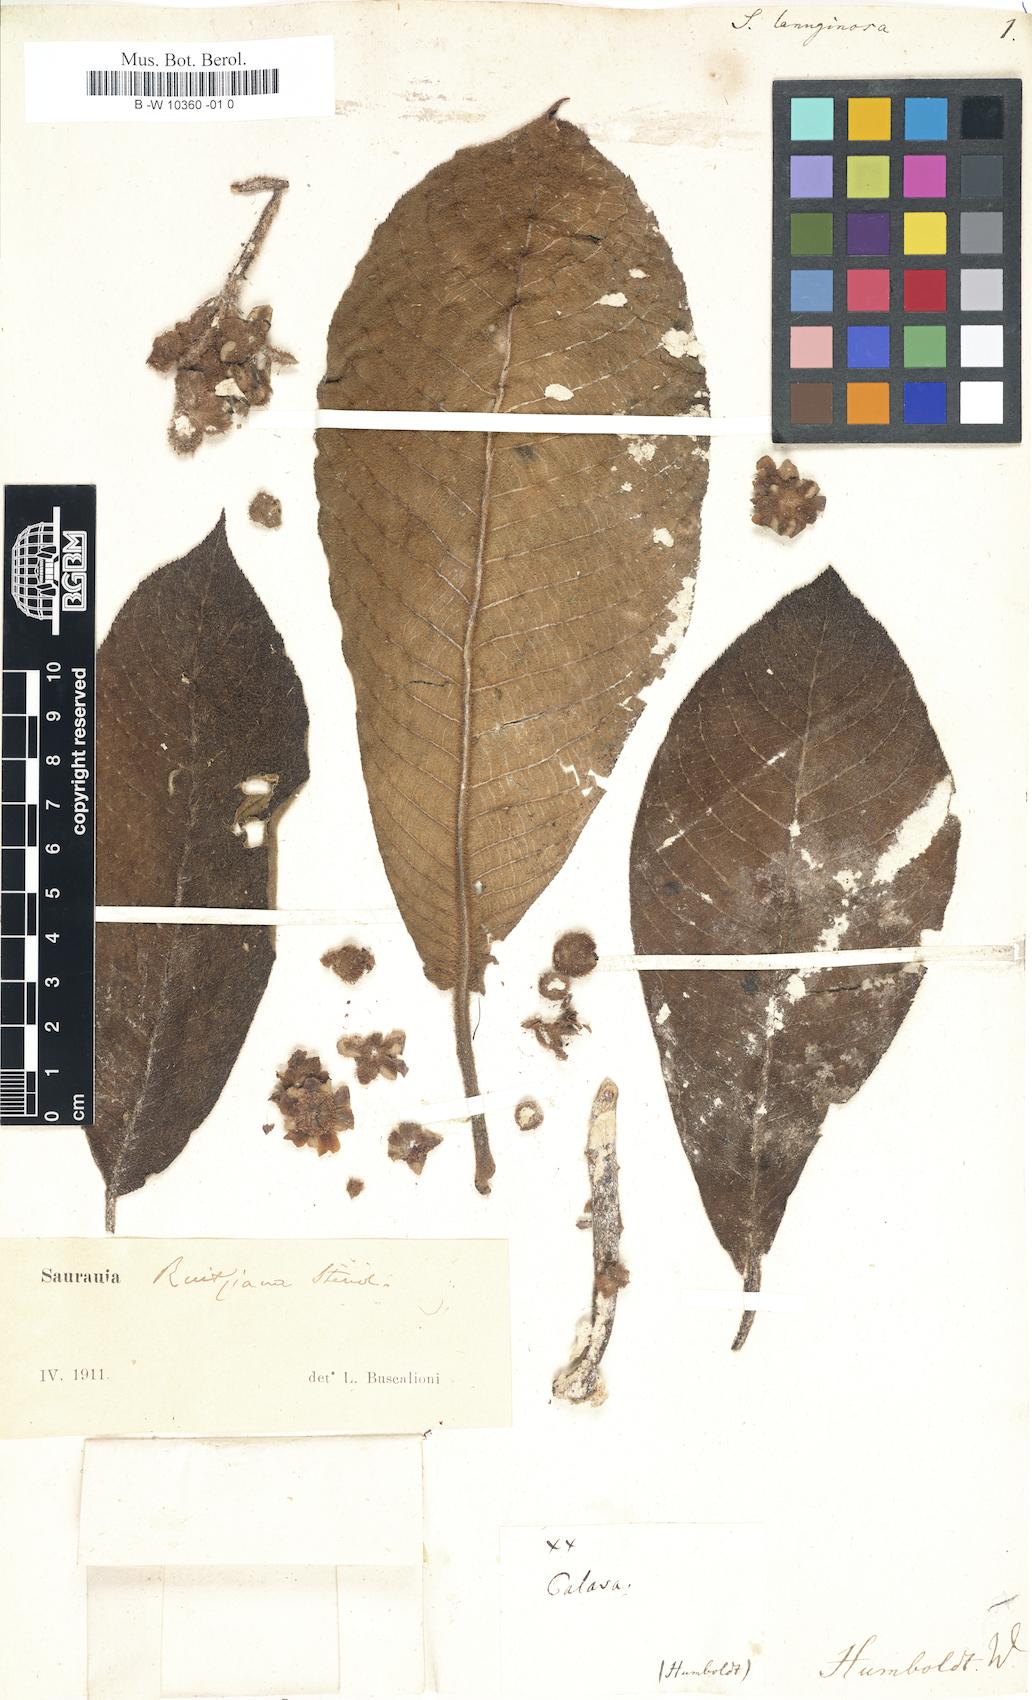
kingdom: Plantae
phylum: Tracheophyta
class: Magnoliopsida
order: Ericales
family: Actinidiaceae
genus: Saurauia
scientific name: Saurauia
